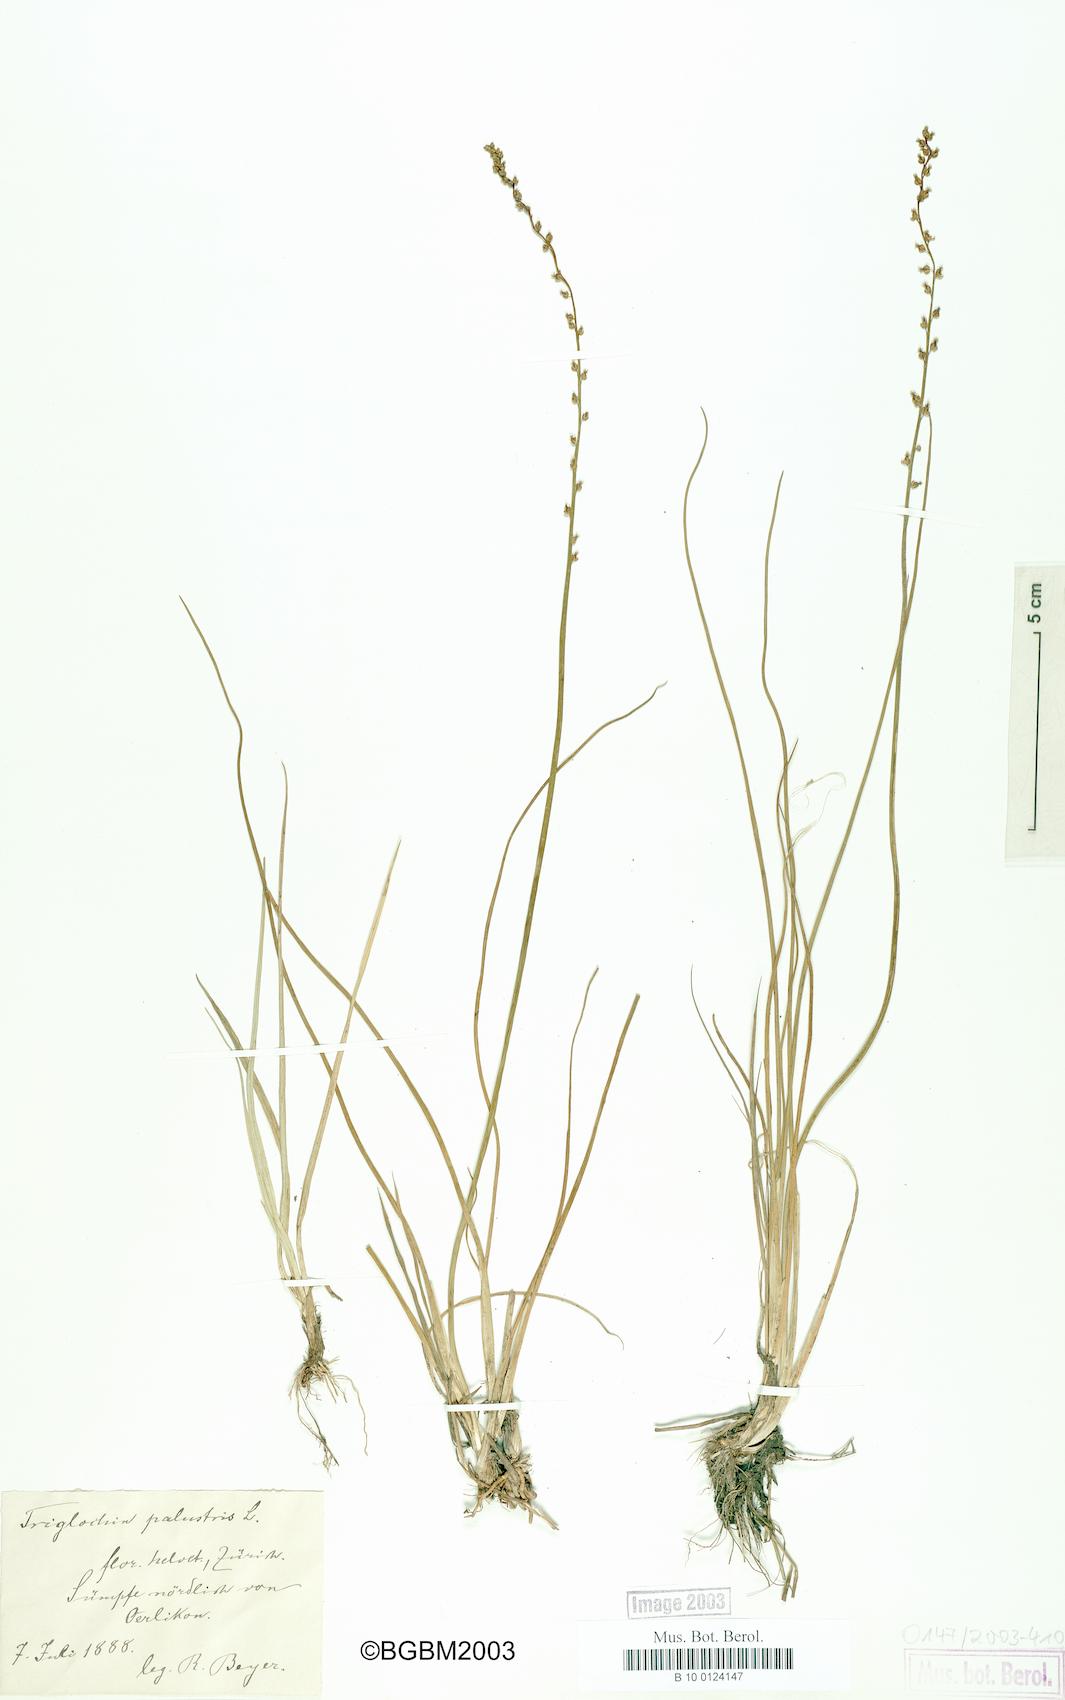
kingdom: Plantae
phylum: Tracheophyta
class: Liliopsida
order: Alismatales
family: Juncaginaceae
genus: Triglochin
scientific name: Triglochin palustris
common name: Marsh arrowgrass
